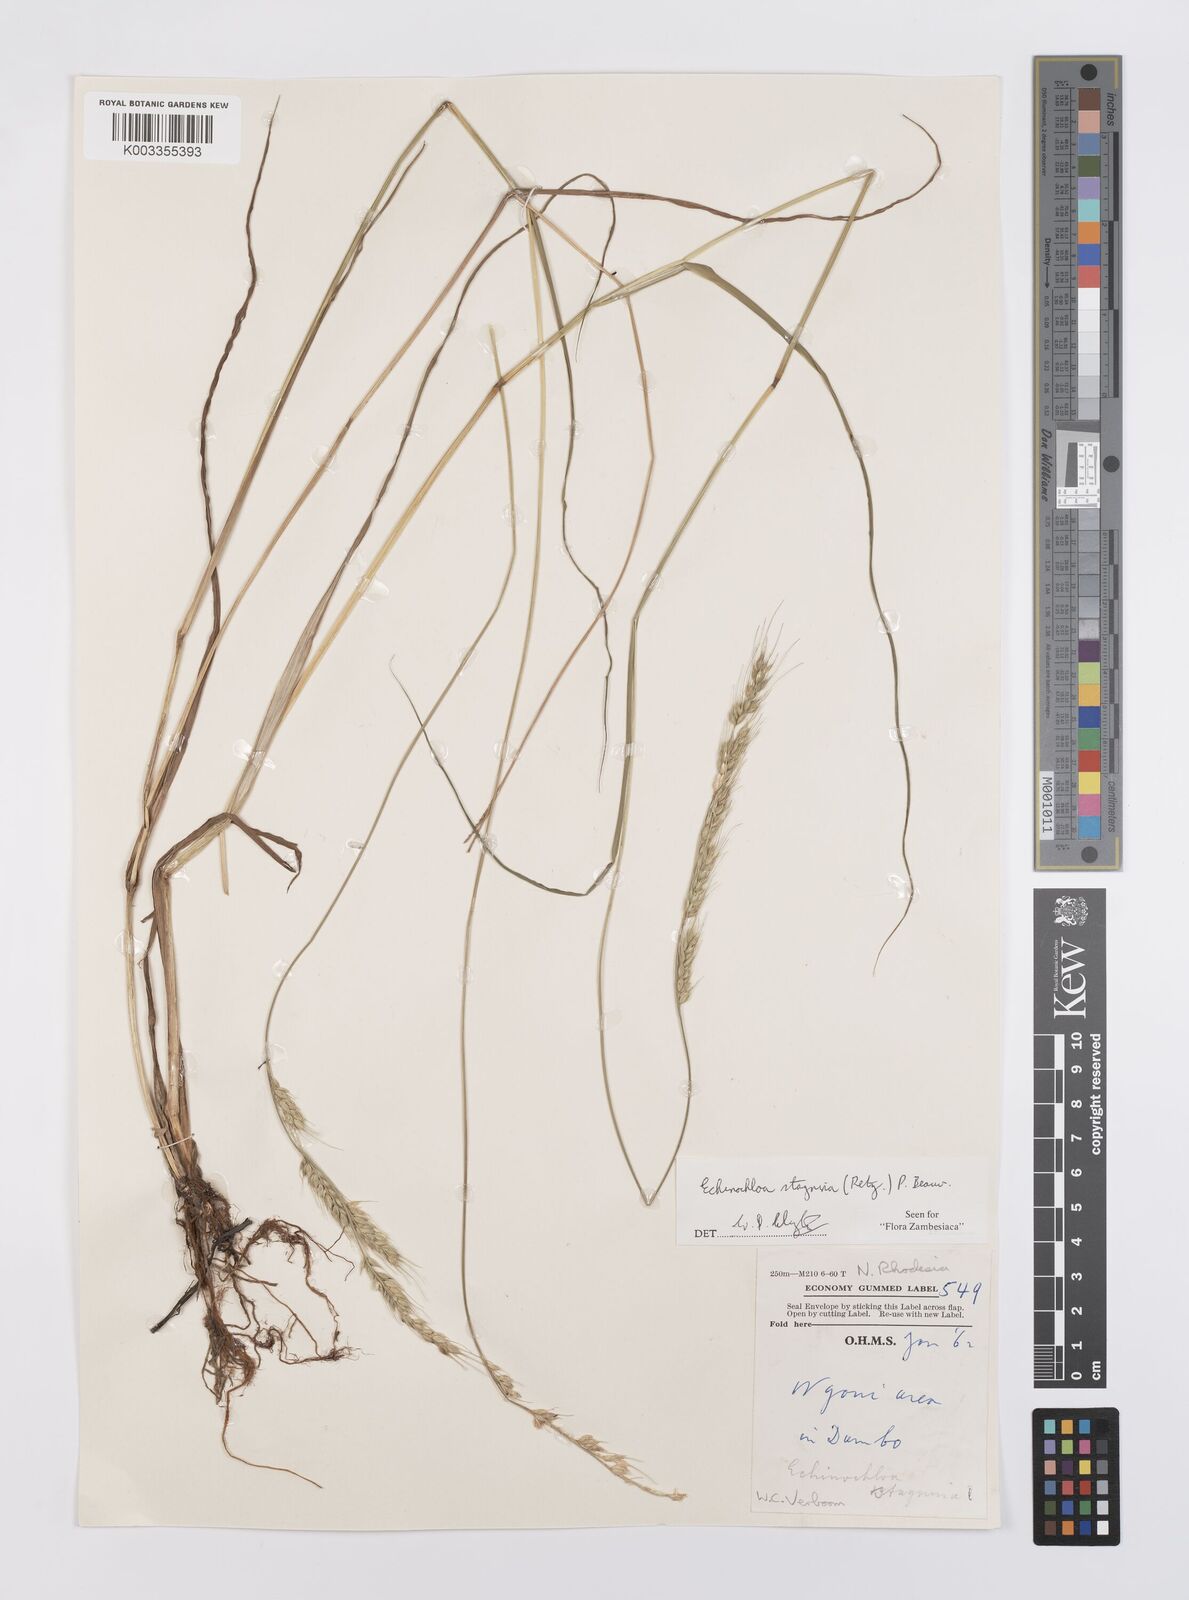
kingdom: Plantae
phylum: Tracheophyta
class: Liliopsida
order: Poales
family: Poaceae
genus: Echinochloa
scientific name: Echinochloa stagnina
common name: Burgu grass
